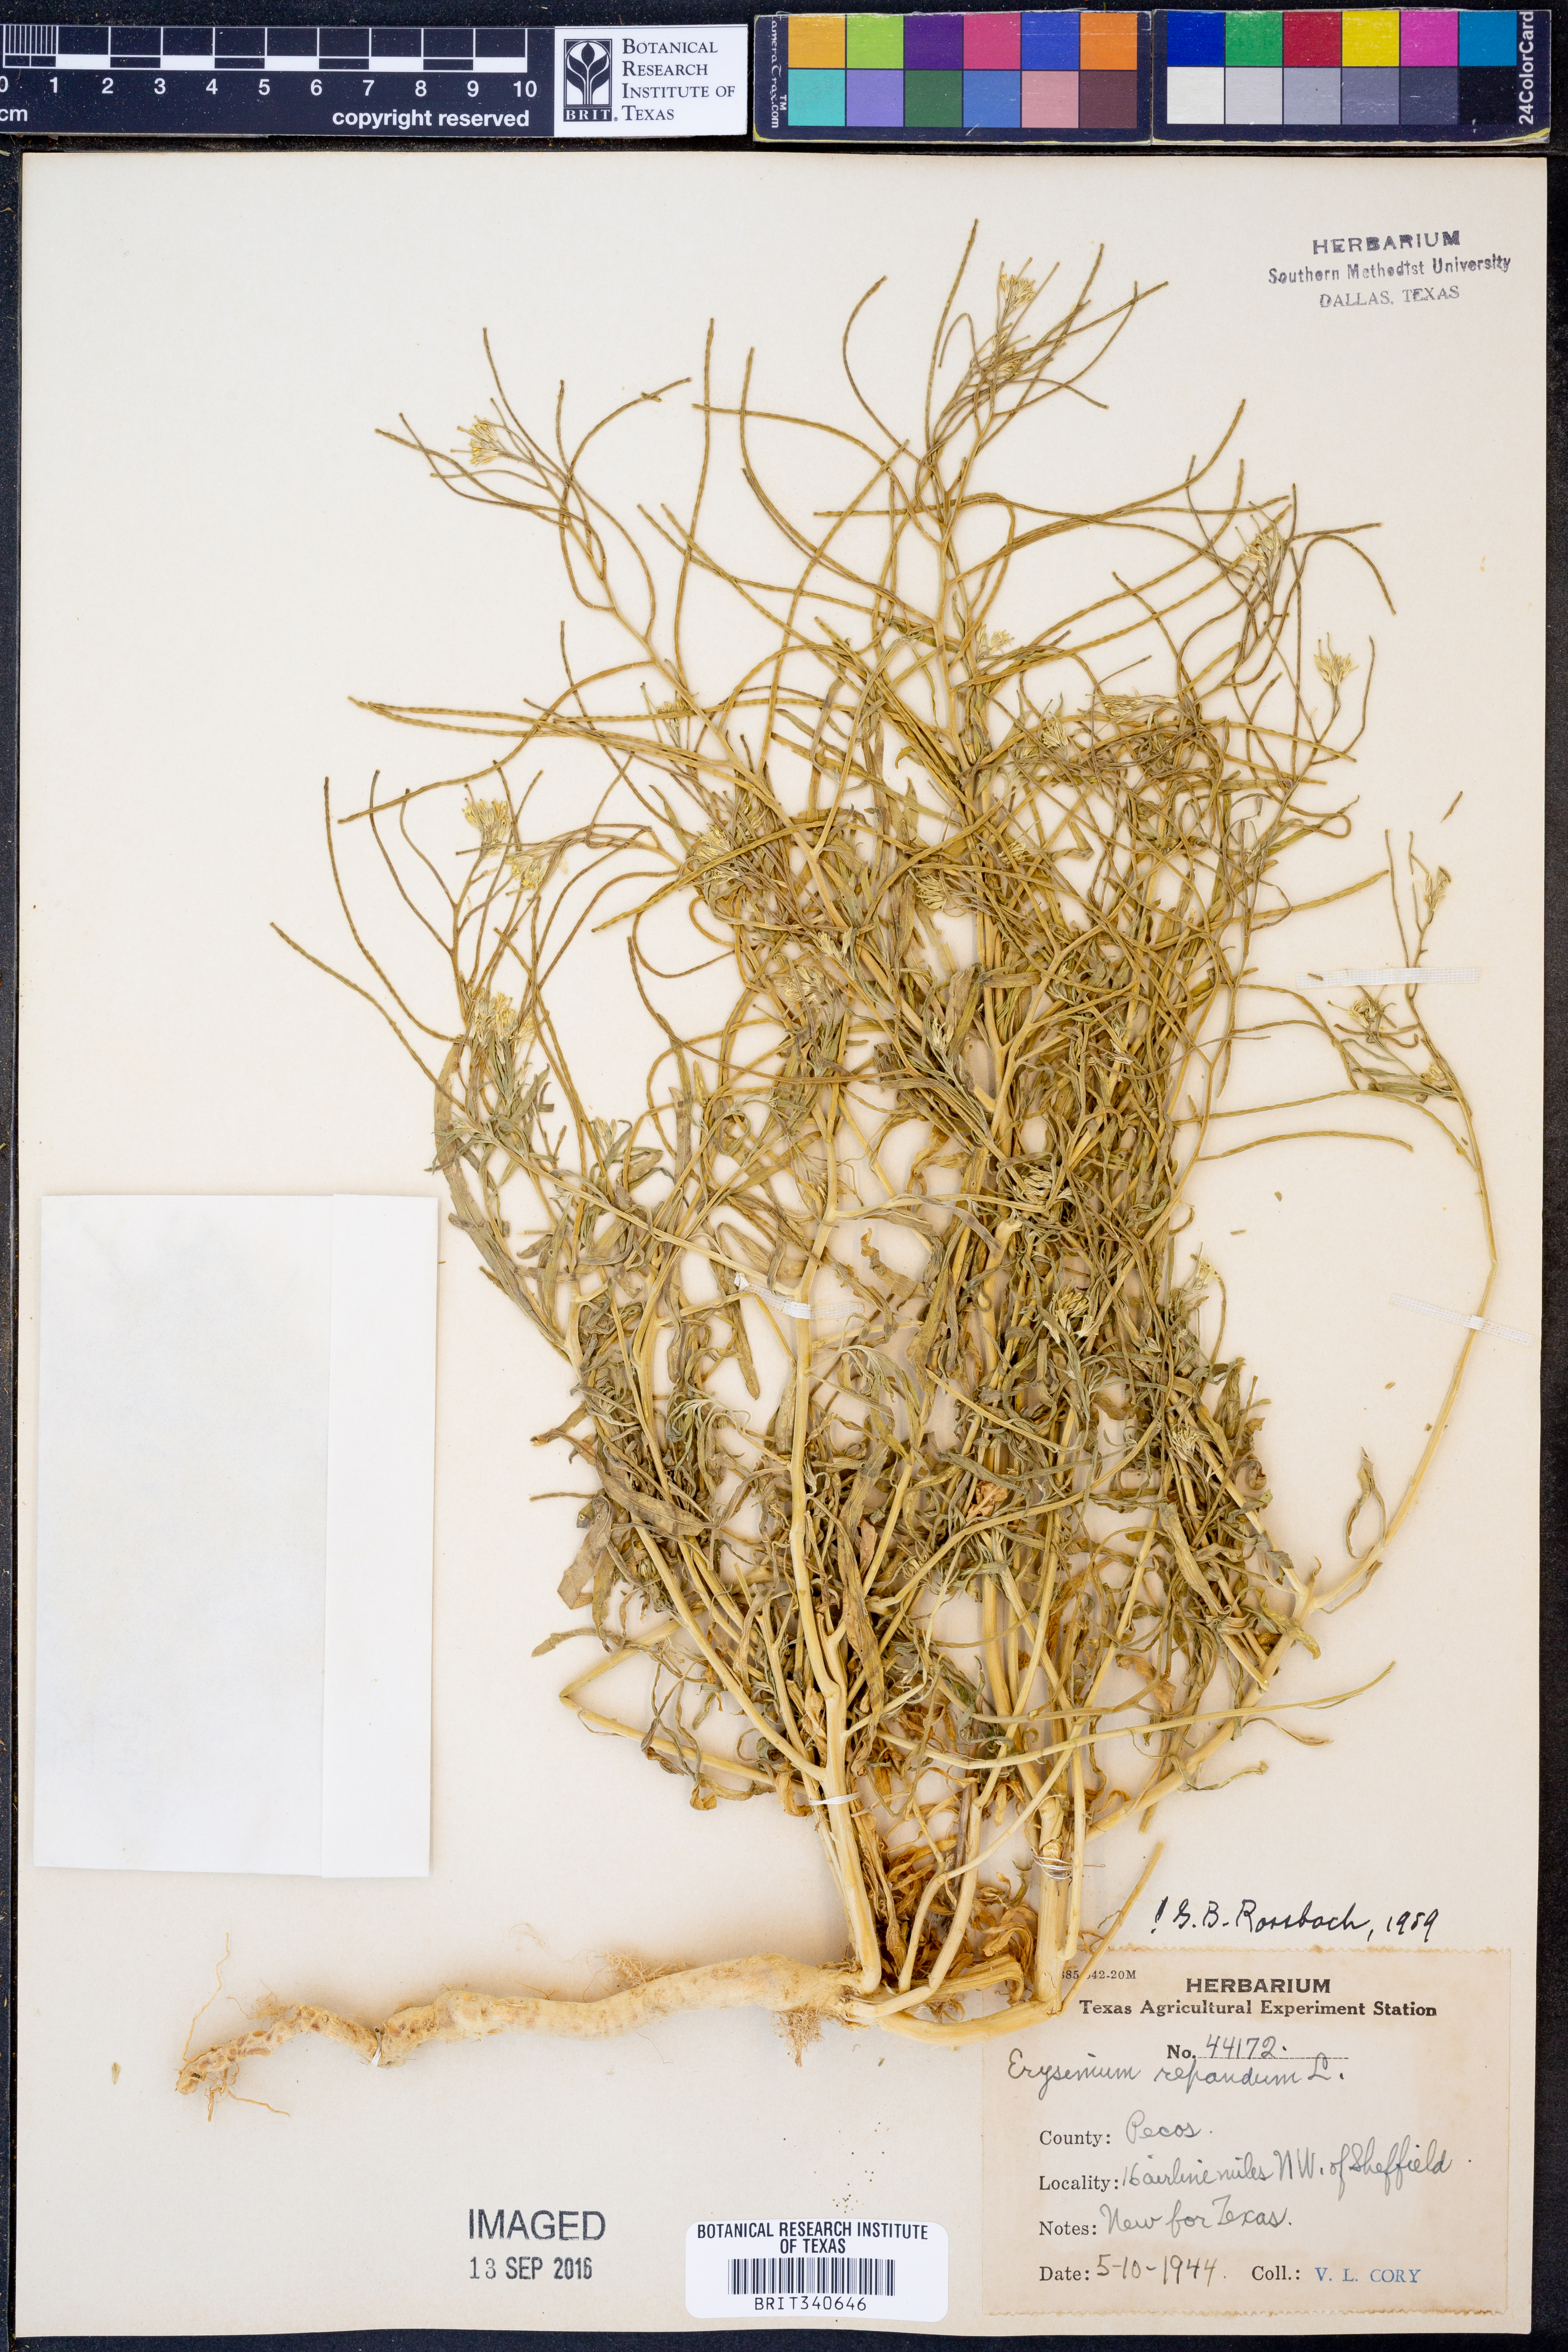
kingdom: Plantae
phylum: Tracheophyta
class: Magnoliopsida
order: Brassicales
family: Brassicaceae
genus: Erysimum
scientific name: Erysimum repandum
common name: Spreading wallflower
